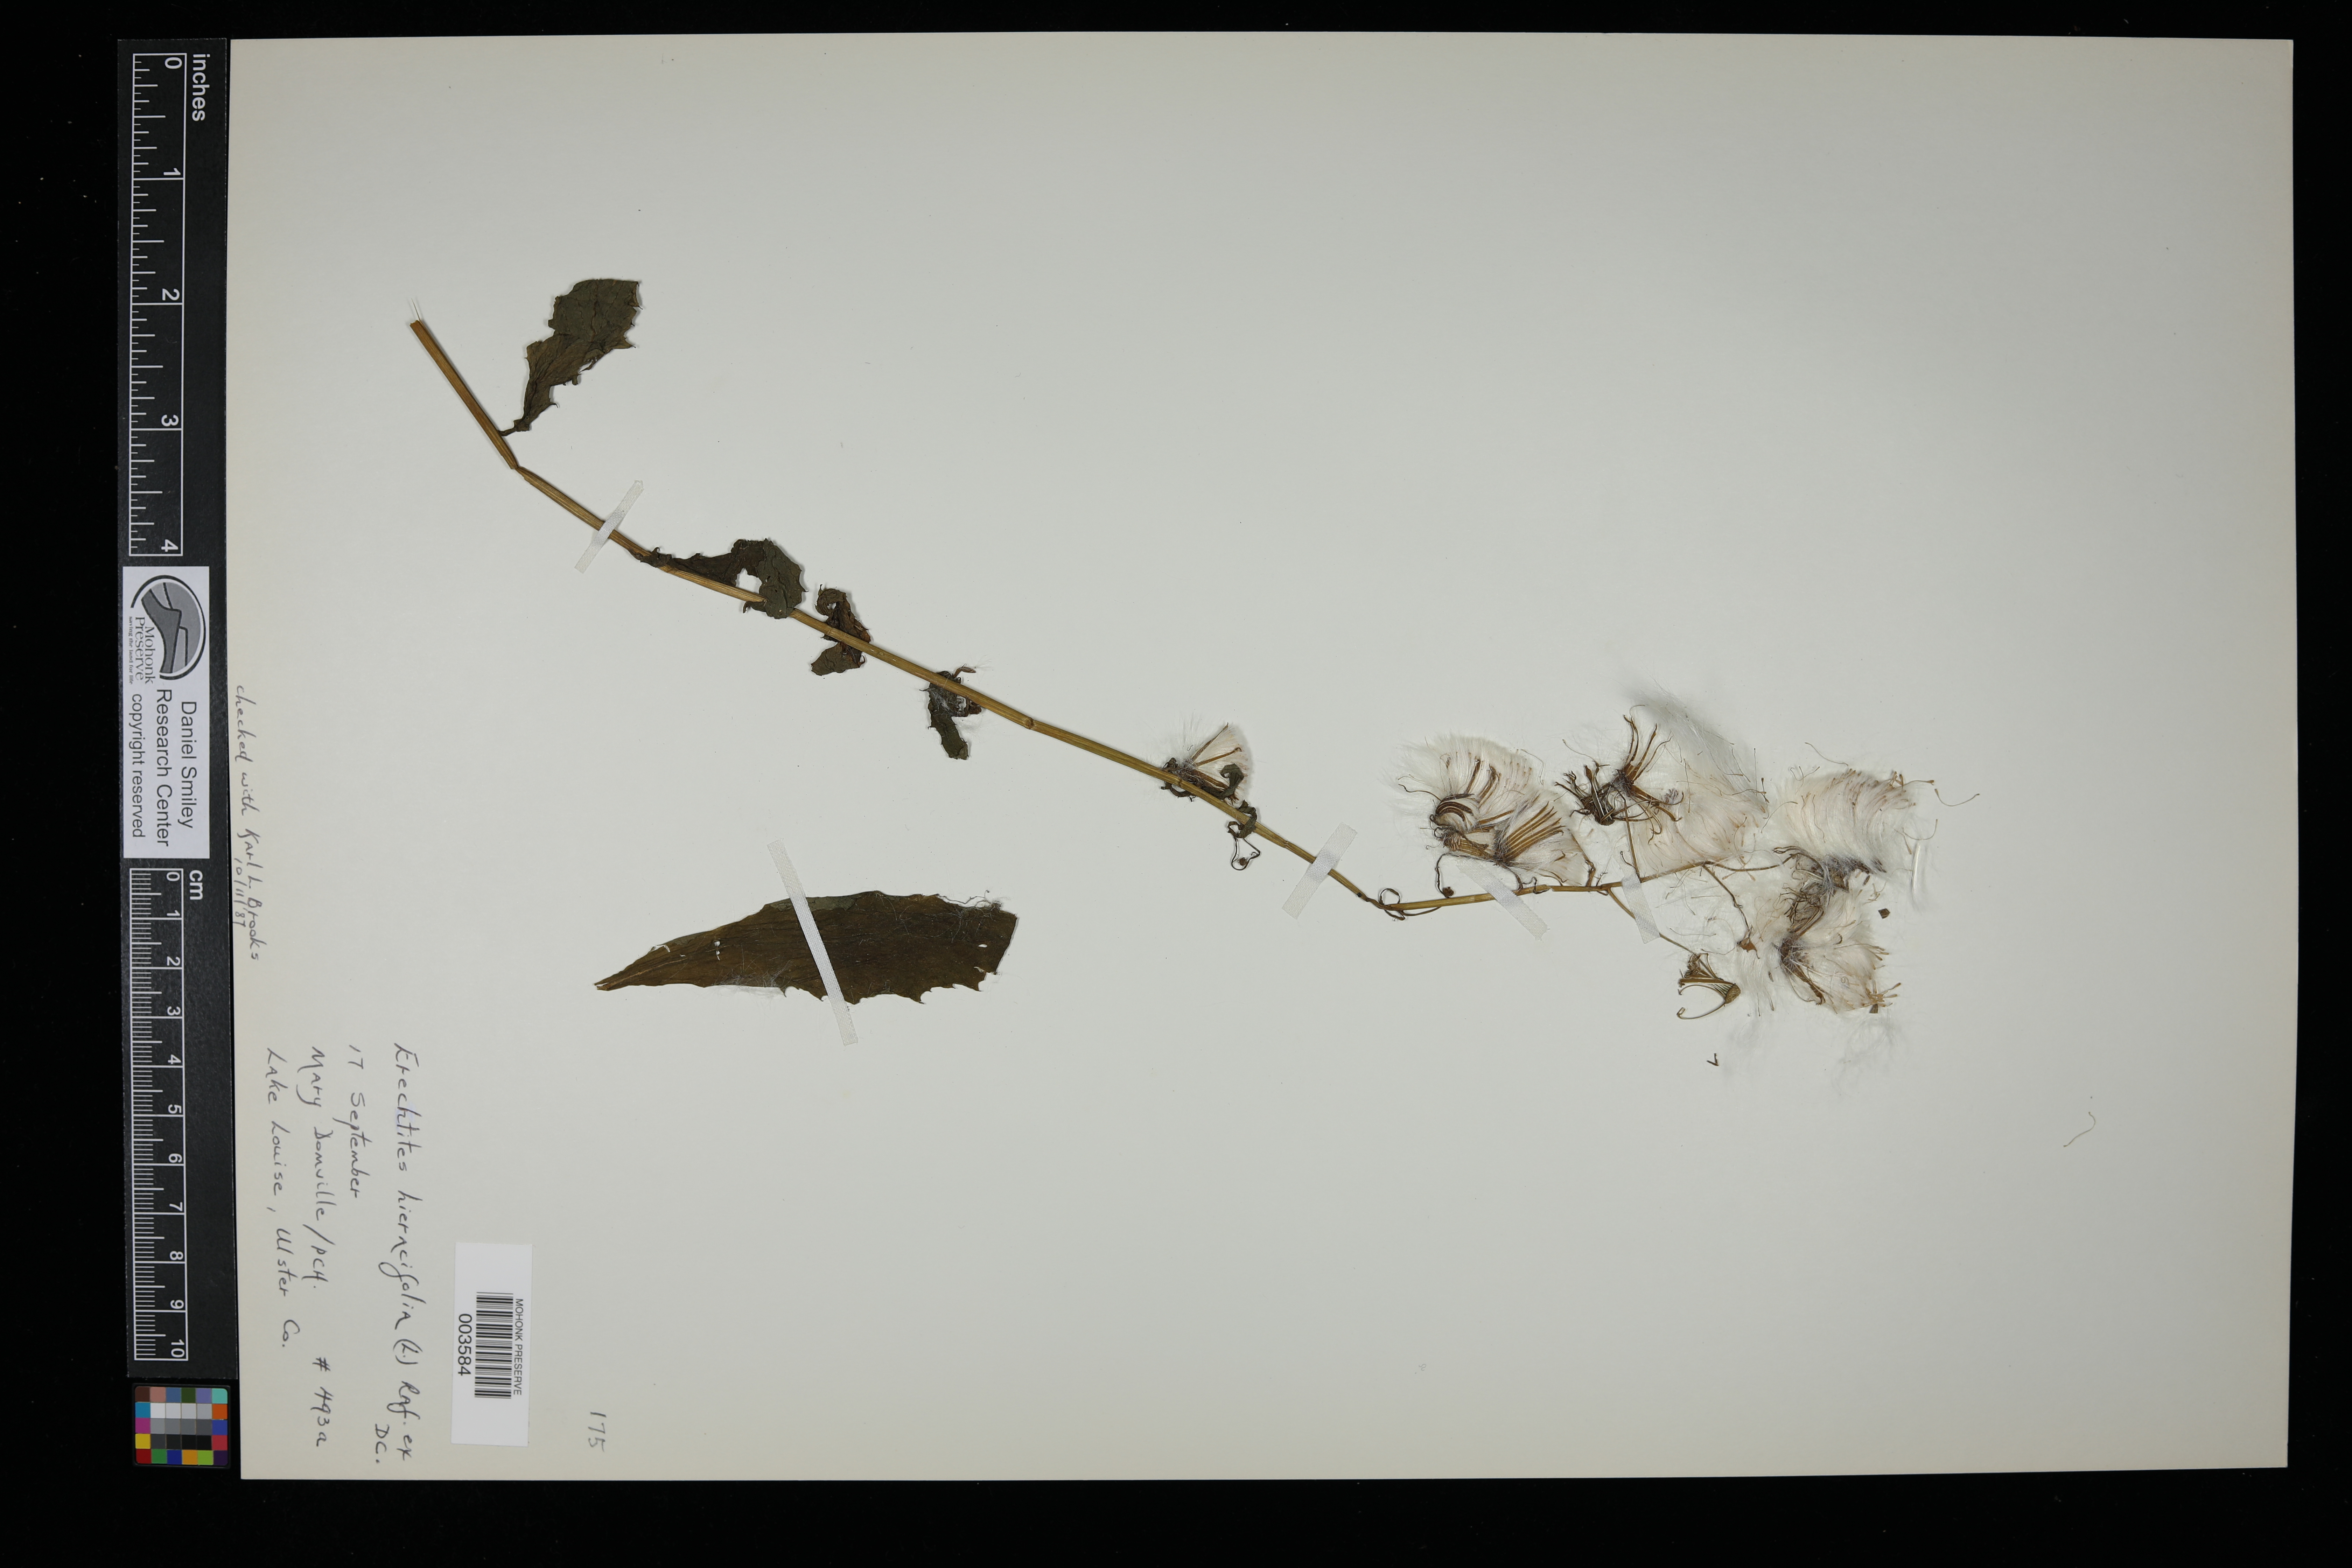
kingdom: Plantae
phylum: Tracheophyta
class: Magnoliopsida
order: Asterales
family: Asteraceae
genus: Erechtites
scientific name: Erechtites hieraciifolius
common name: American burnweed
